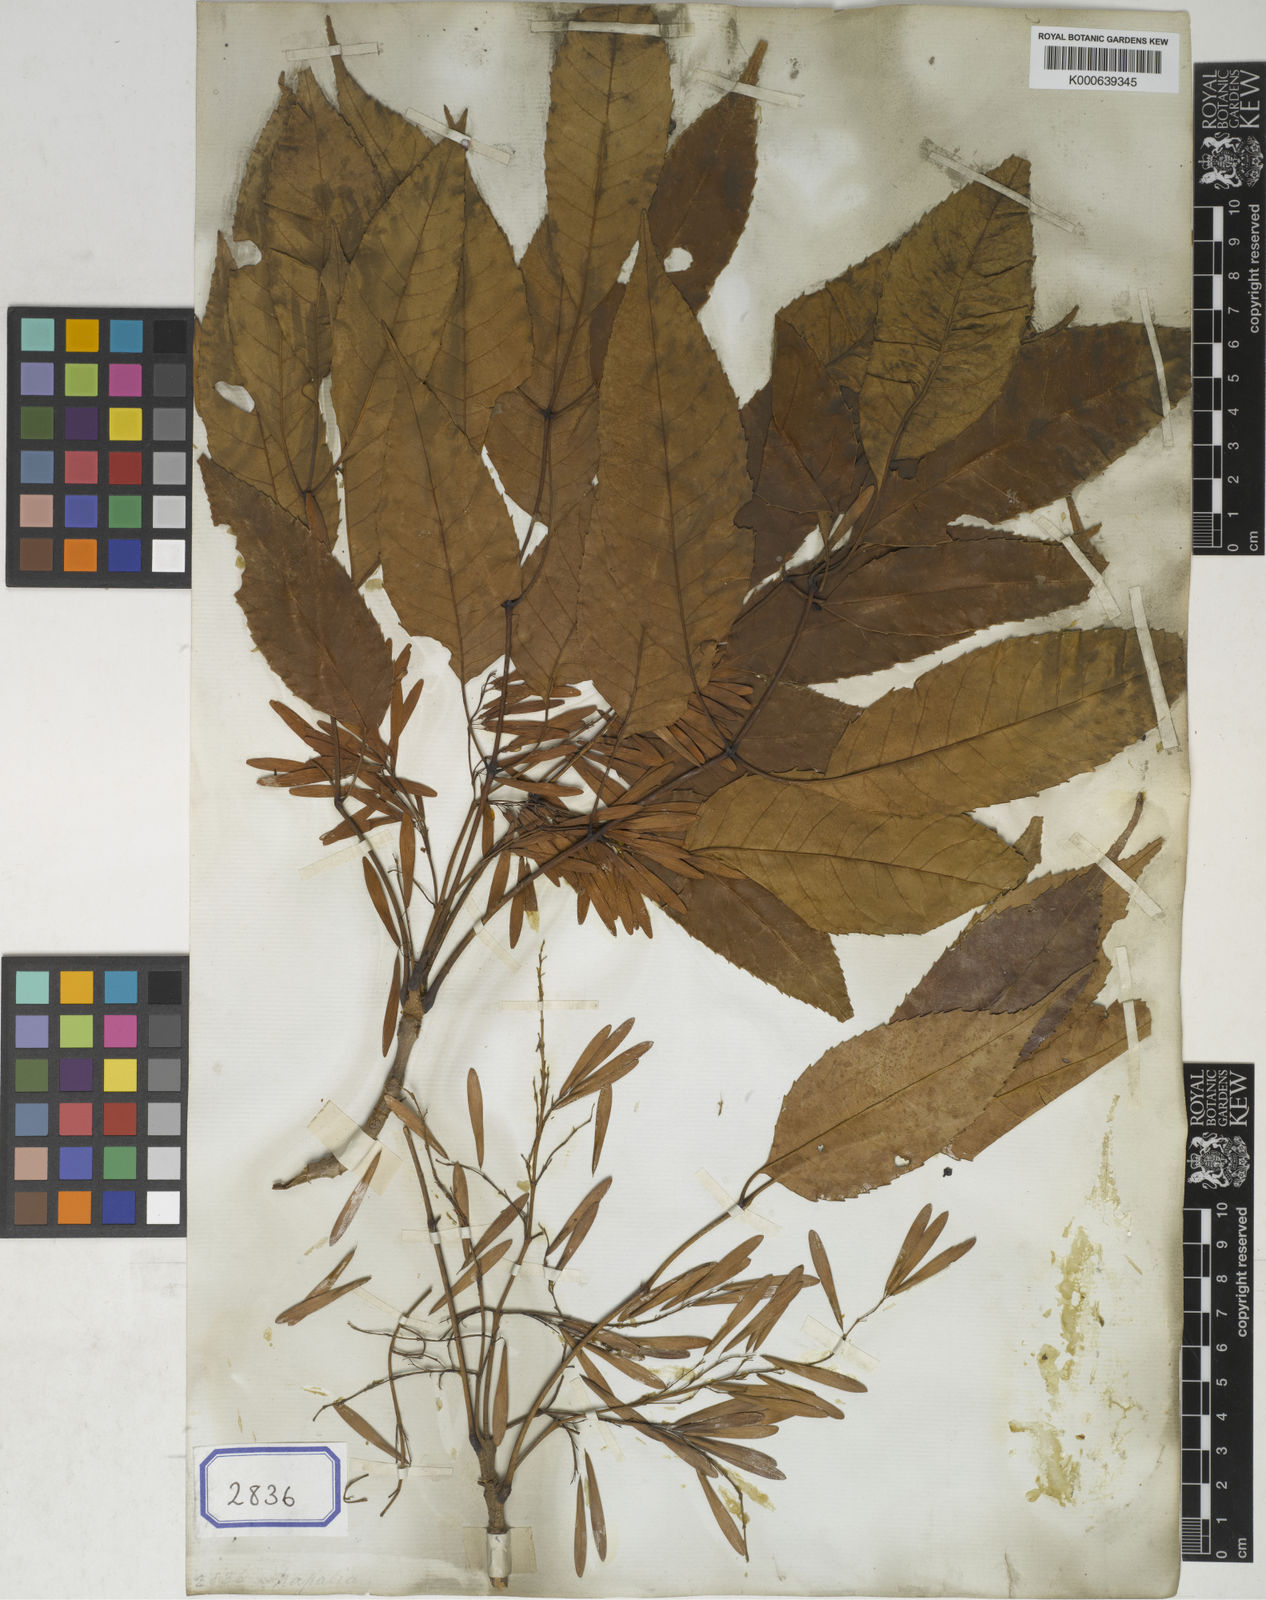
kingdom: Plantae
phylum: Tracheophyta
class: Magnoliopsida
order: Lamiales
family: Oleaceae
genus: Fraxinus
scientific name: Fraxinus floribunda
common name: East indian ash
